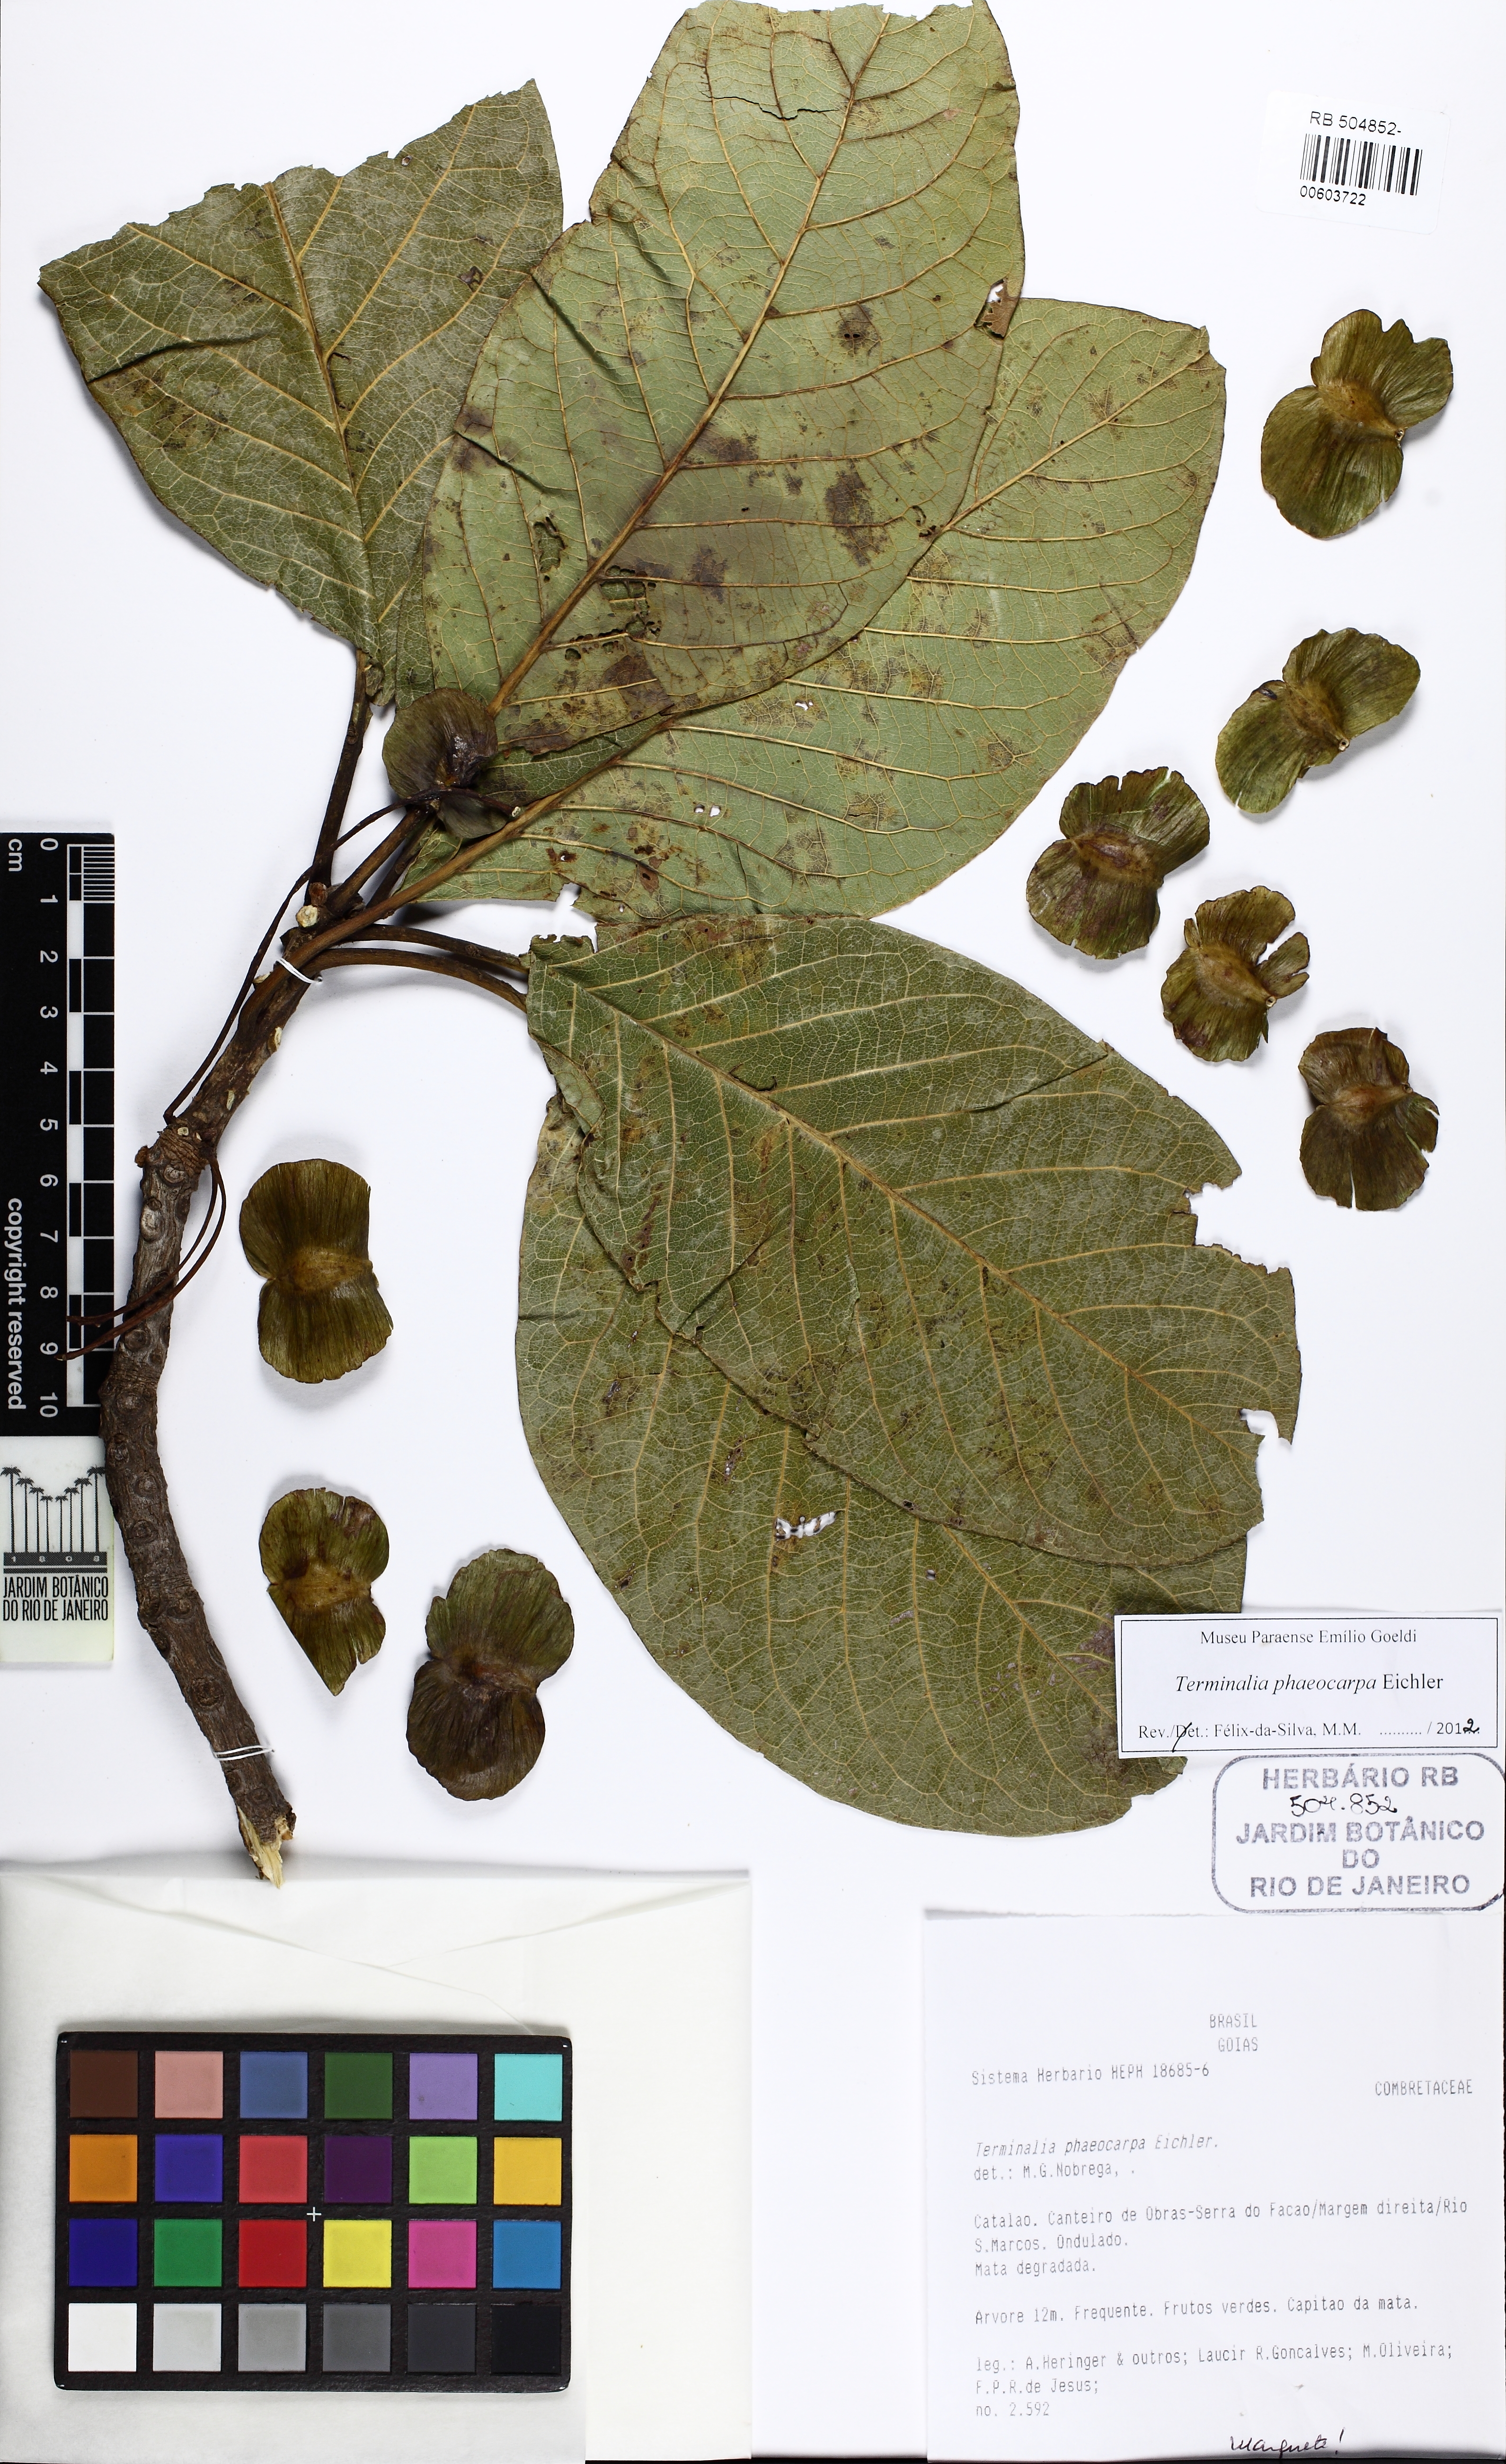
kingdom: Plantae
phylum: Tracheophyta
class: Magnoliopsida
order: Myrtales
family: Combretaceae
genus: Terminalia
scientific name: Terminalia phaeocarpa
